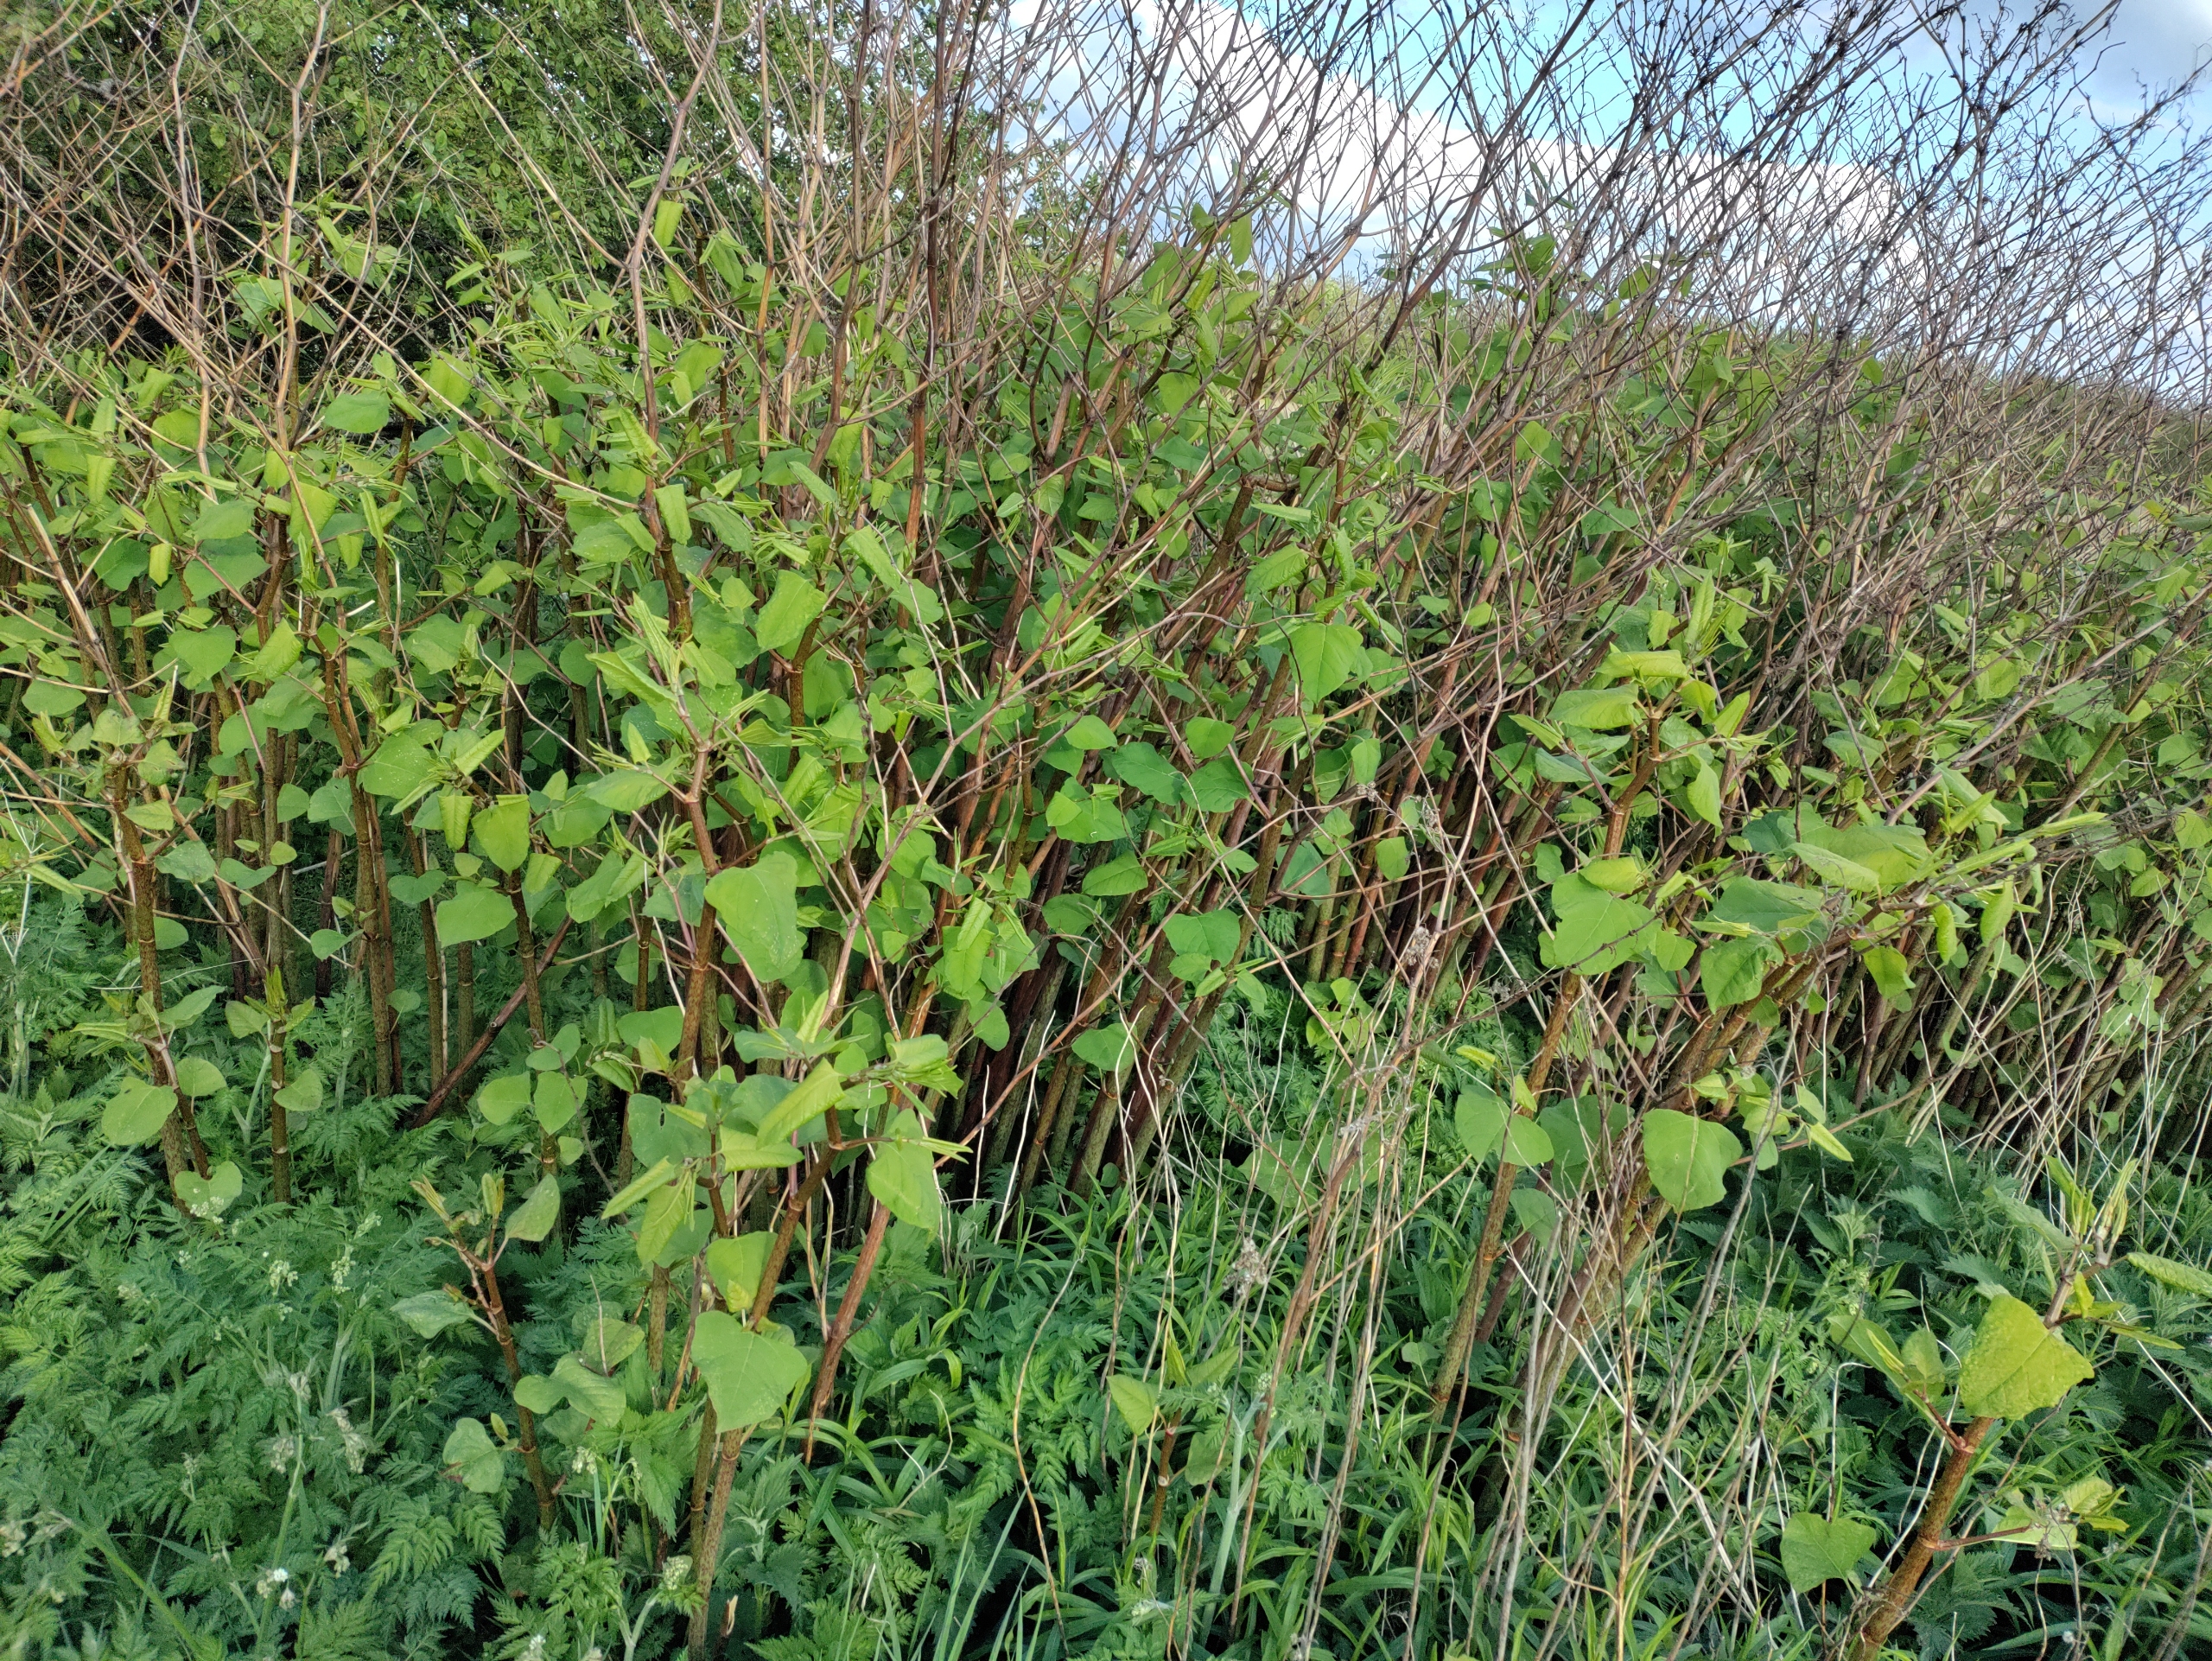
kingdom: Plantae
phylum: Tracheophyta
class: Magnoliopsida
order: Caryophyllales
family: Polygonaceae
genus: Reynoutria
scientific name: Reynoutria japonica
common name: Japan-pileurt
